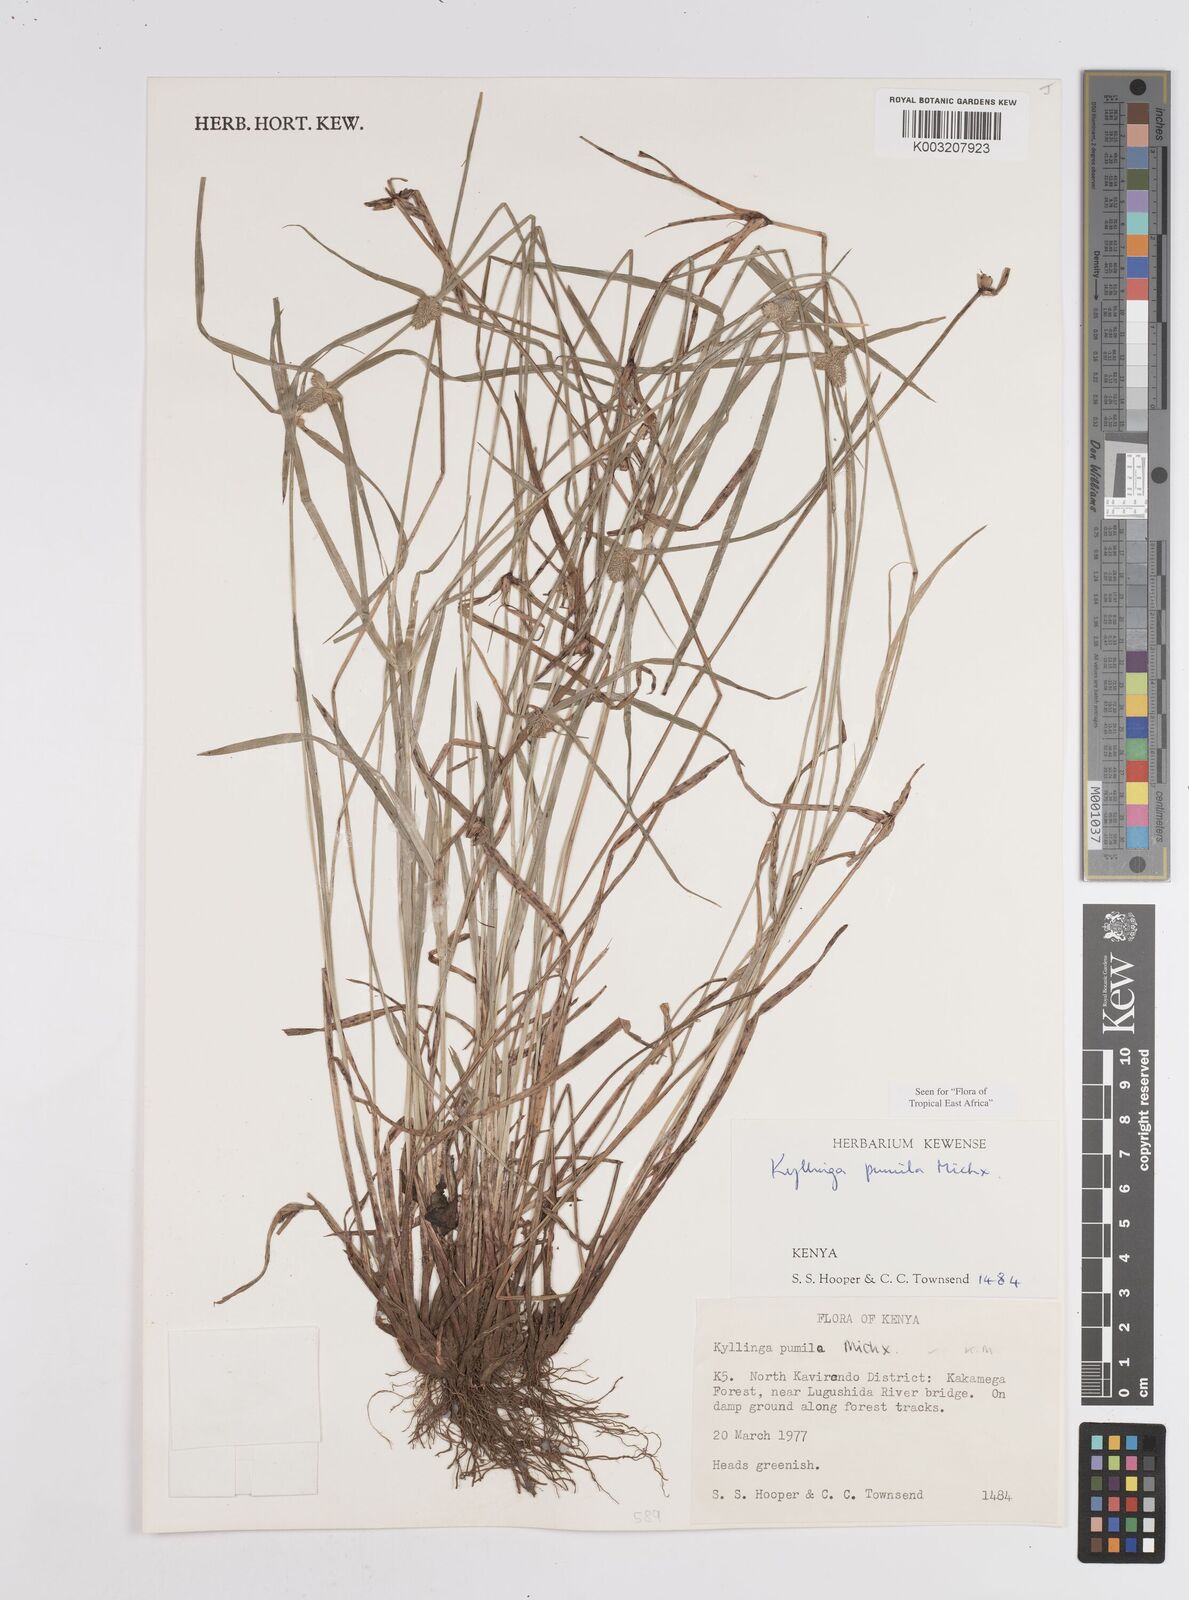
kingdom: Plantae
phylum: Tracheophyta
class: Liliopsida
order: Poales
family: Cyperaceae
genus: Cyperus
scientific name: Cyperus
